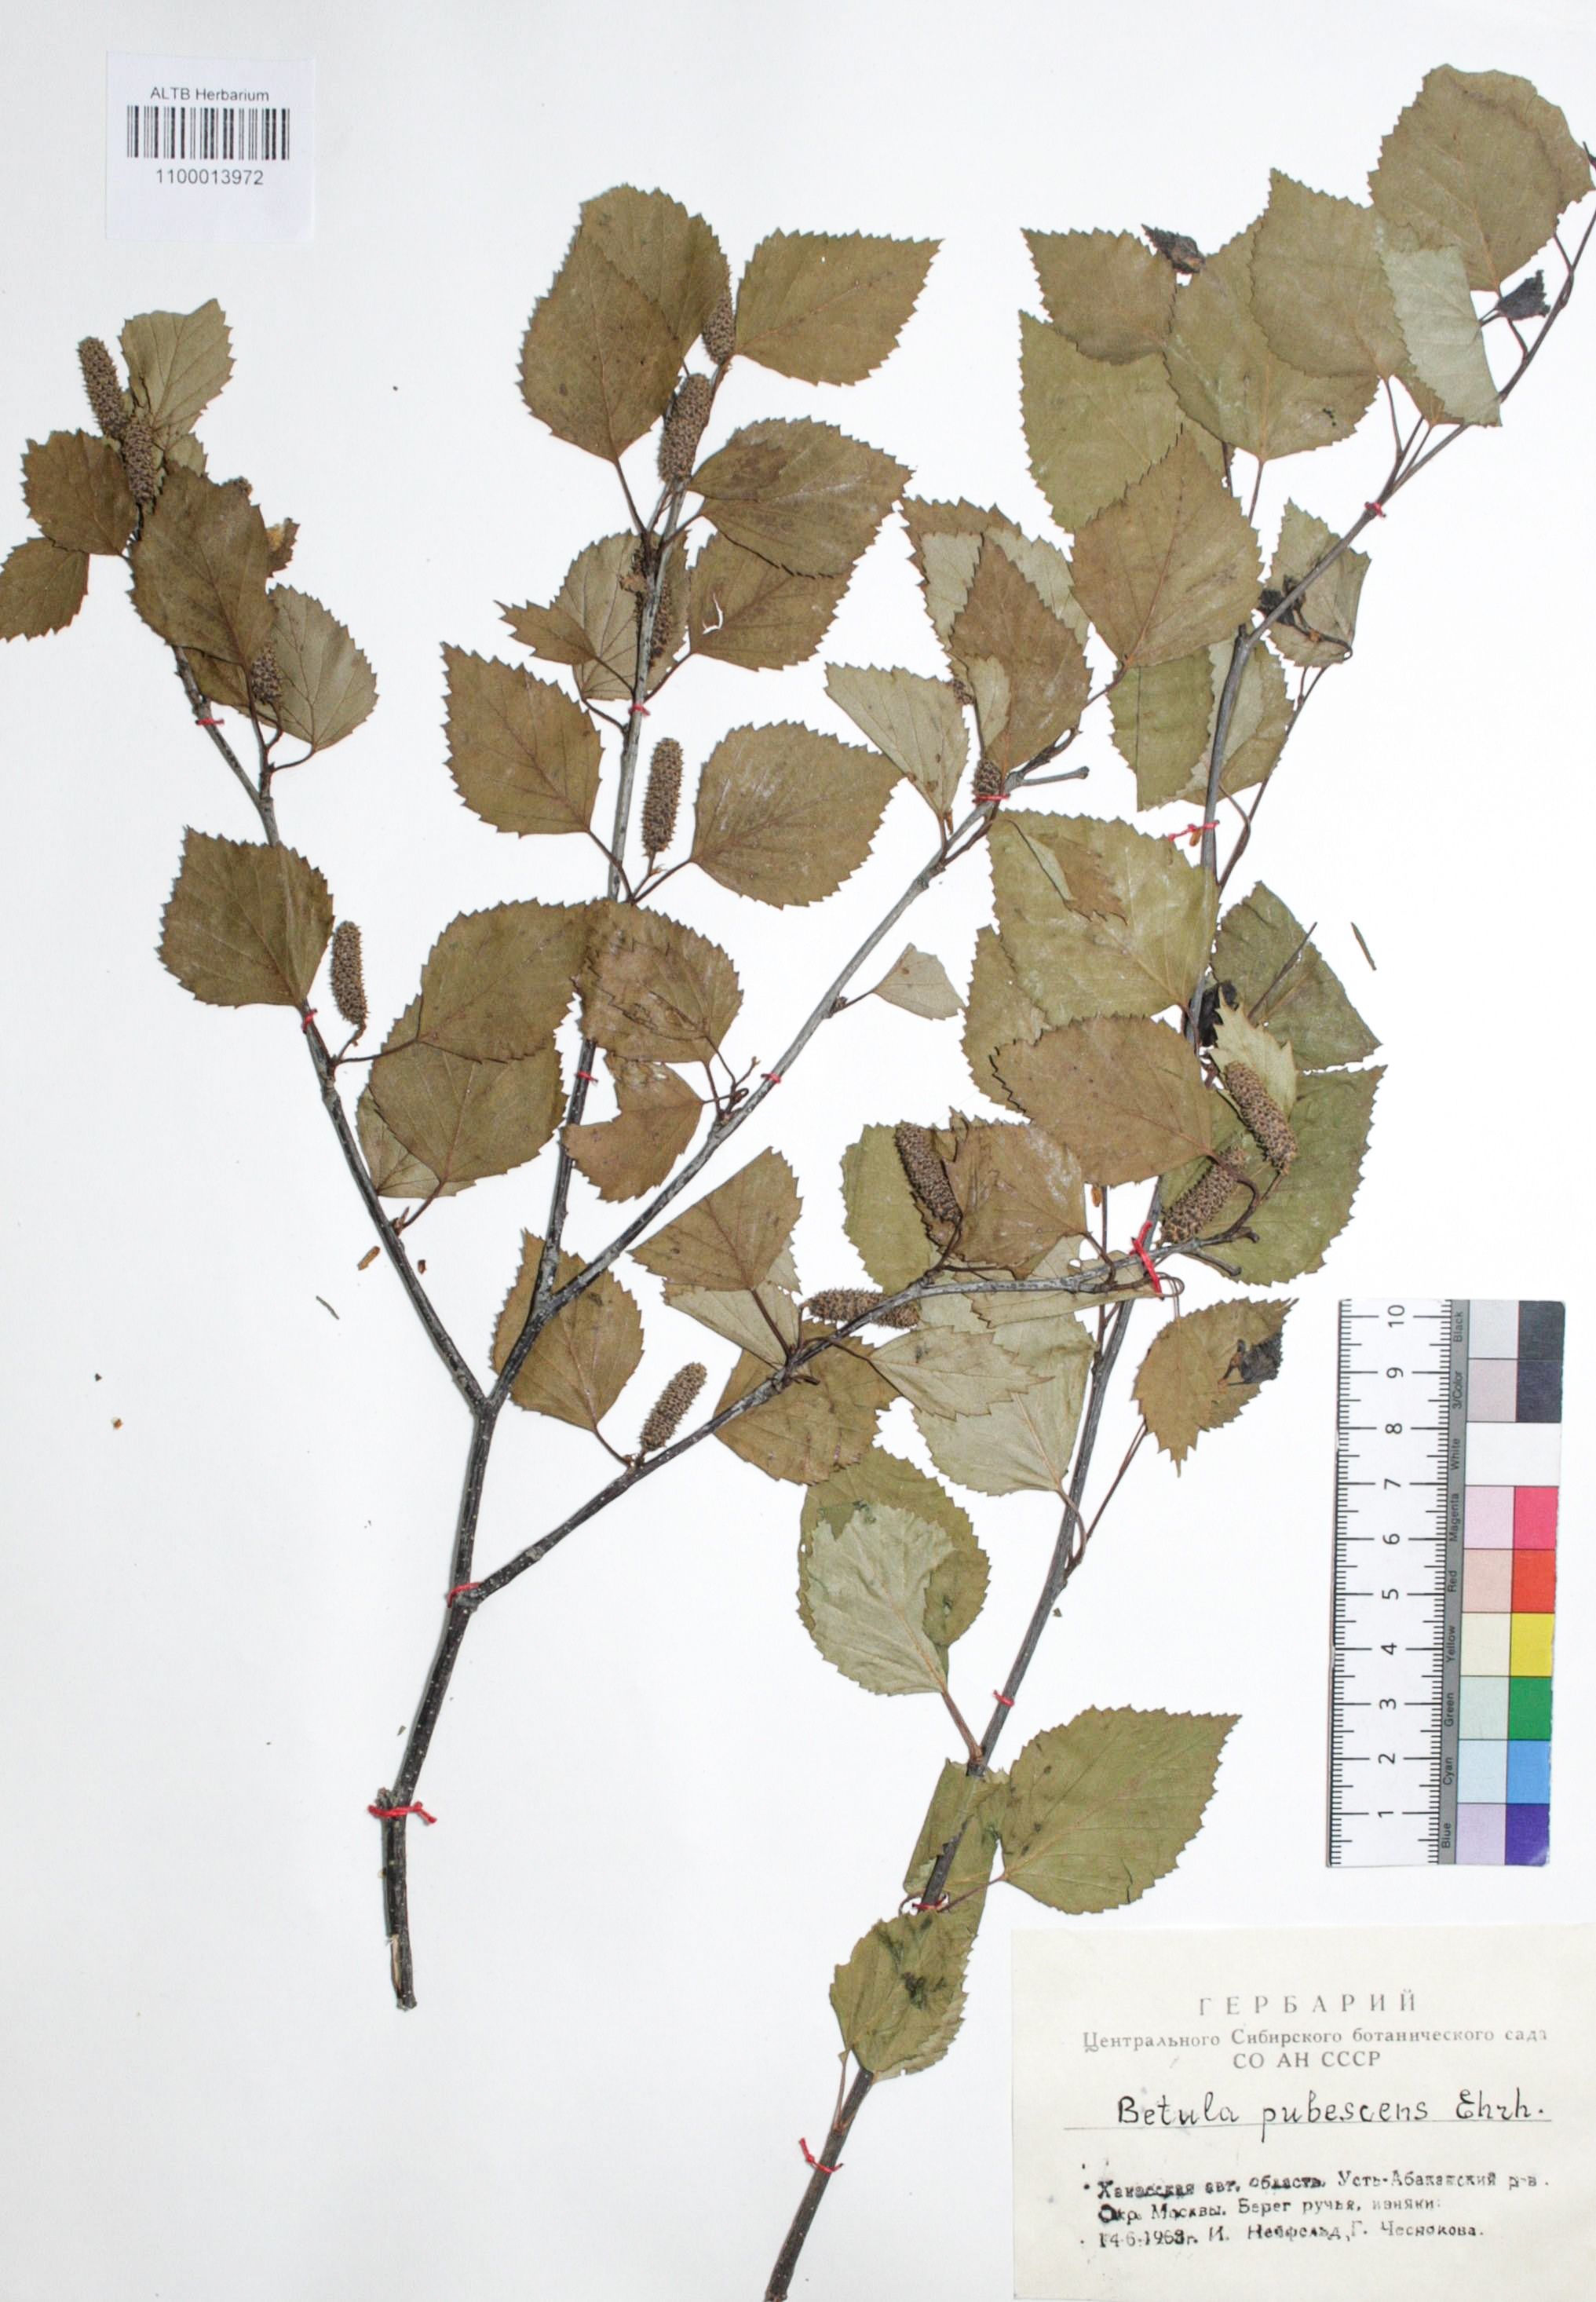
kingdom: Plantae
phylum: Tracheophyta
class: Magnoliopsida
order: Fagales
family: Betulaceae
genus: Betula
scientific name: Betula pubescens
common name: Downy birch
